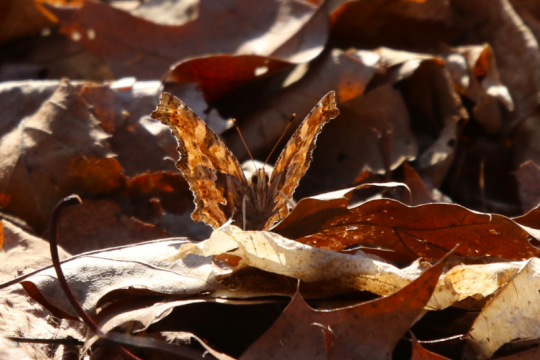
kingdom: Animalia
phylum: Arthropoda
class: Insecta
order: Lepidoptera
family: Nymphalidae
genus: Polygonia
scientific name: Polygonia comma
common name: Eastern Comma
